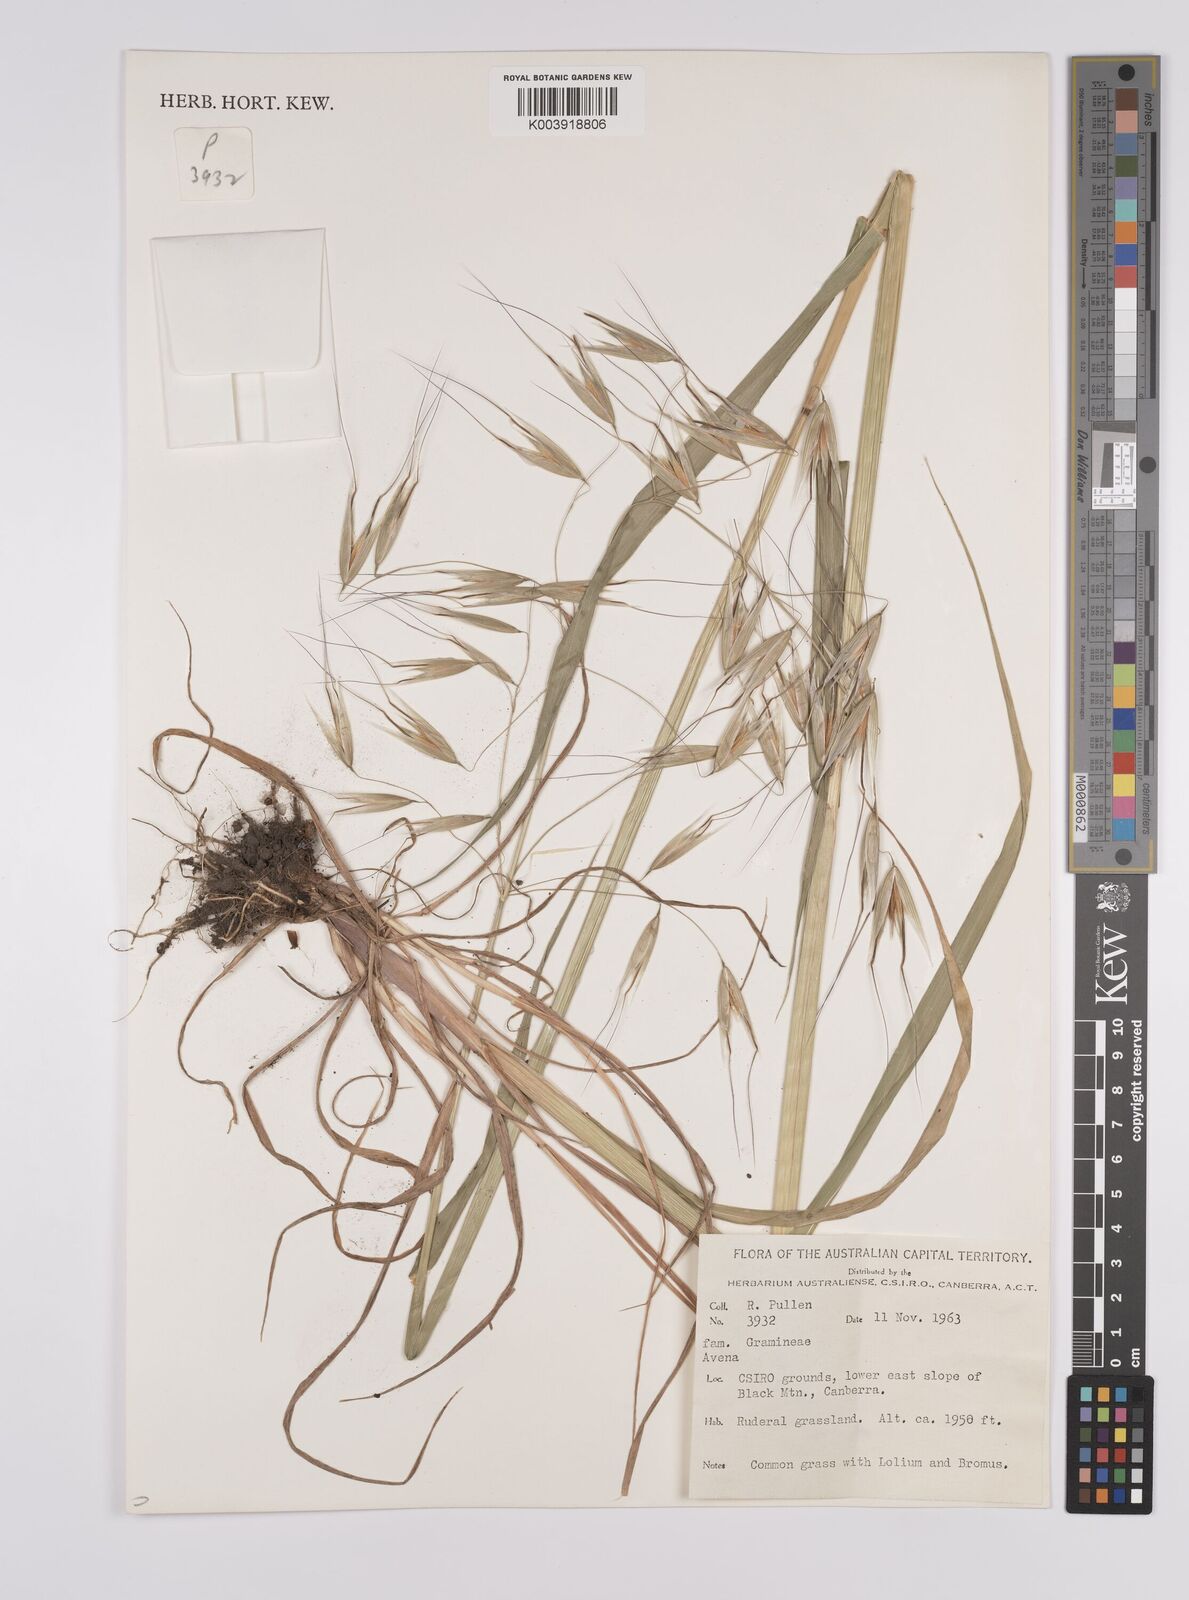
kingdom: Plantae
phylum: Tracheophyta
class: Liliopsida
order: Poales
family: Poaceae
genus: Avena
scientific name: Avena
